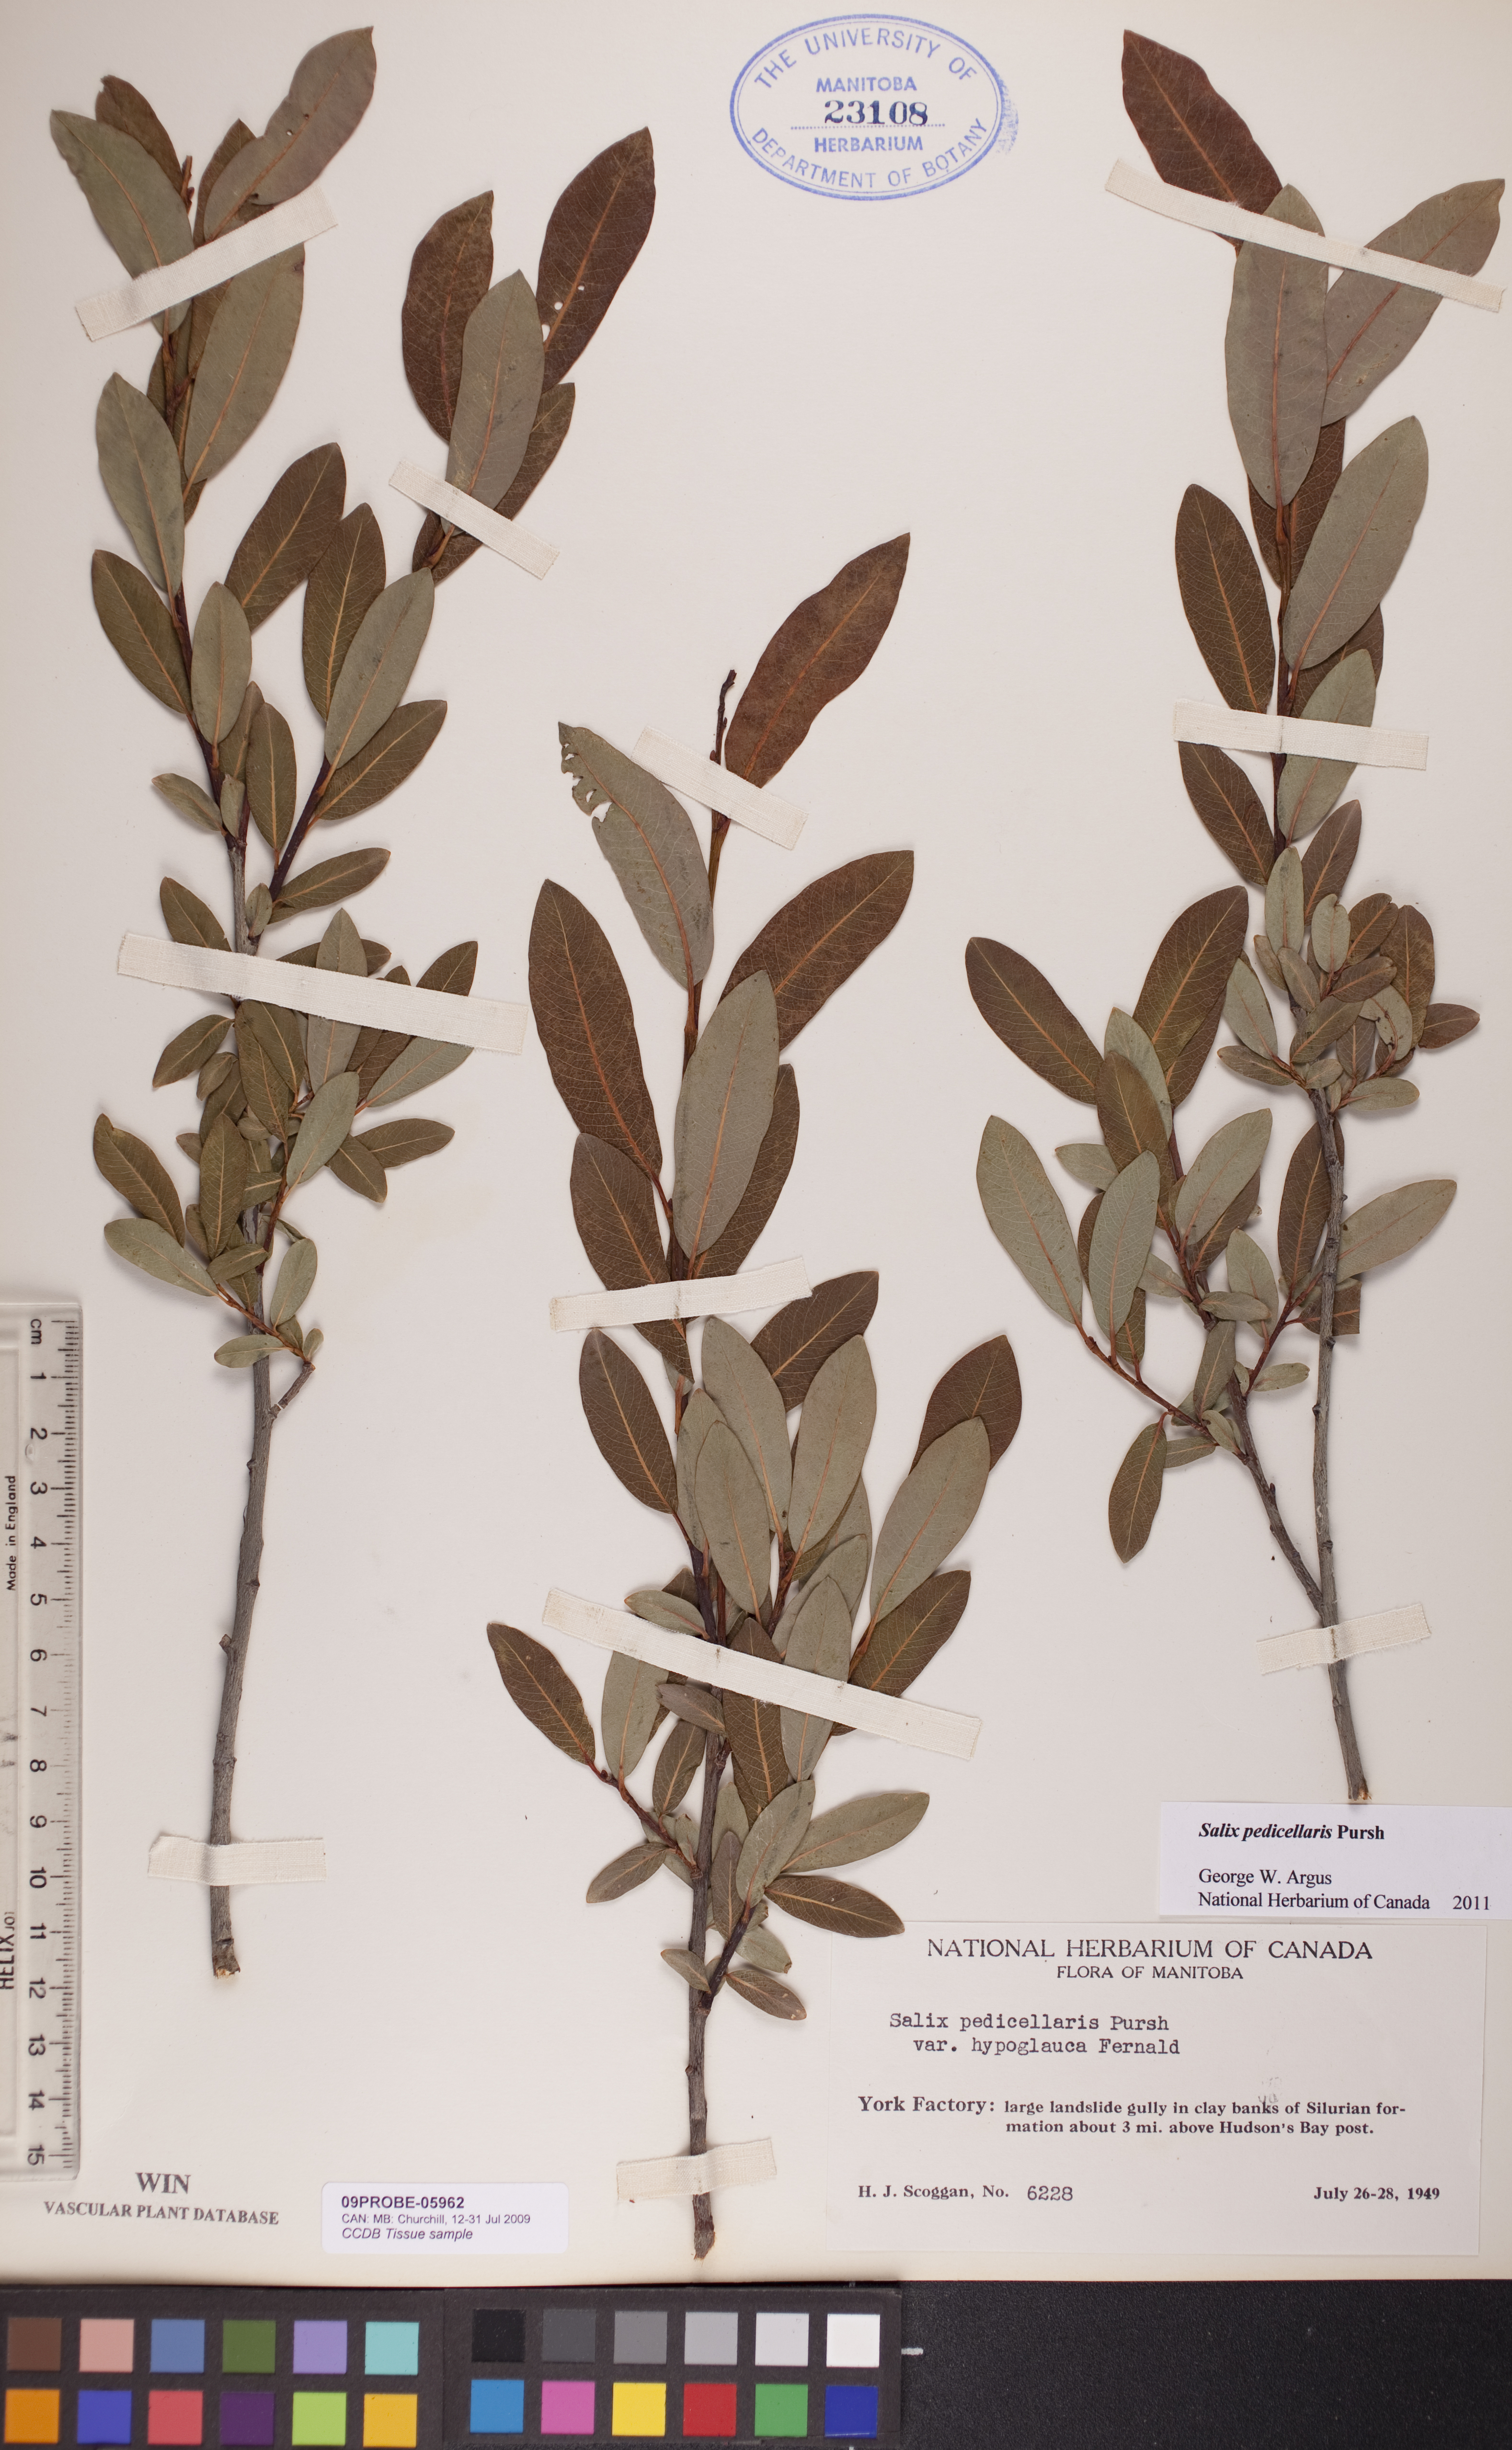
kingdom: Plantae
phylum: Tracheophyta
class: Magnoliopsida
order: Malpighiales
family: Salicaceae
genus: Salix
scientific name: Salix pedicellaris
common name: Bog willow
